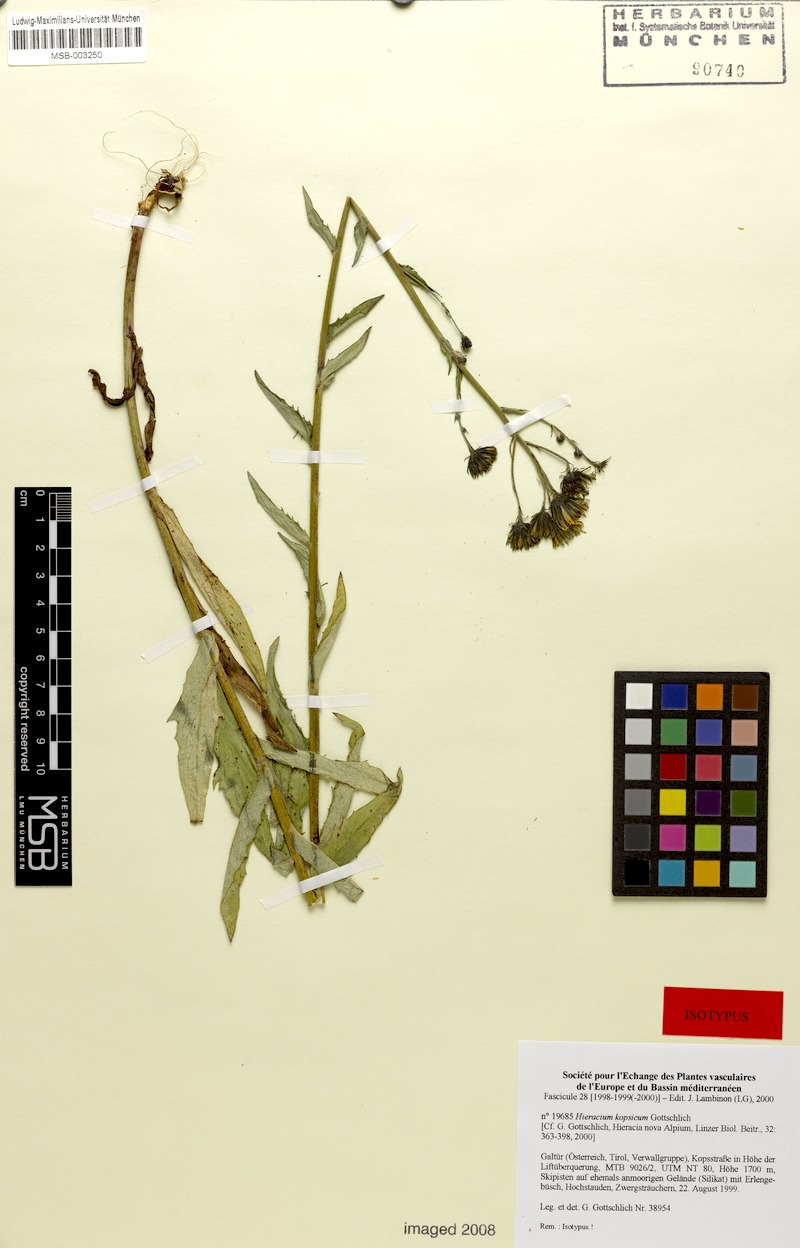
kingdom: Plantae
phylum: Tracheophyta
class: Magnoliopsida
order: Asterales
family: Asteraceae
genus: Hieracium
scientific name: Hieracium kopsicum
